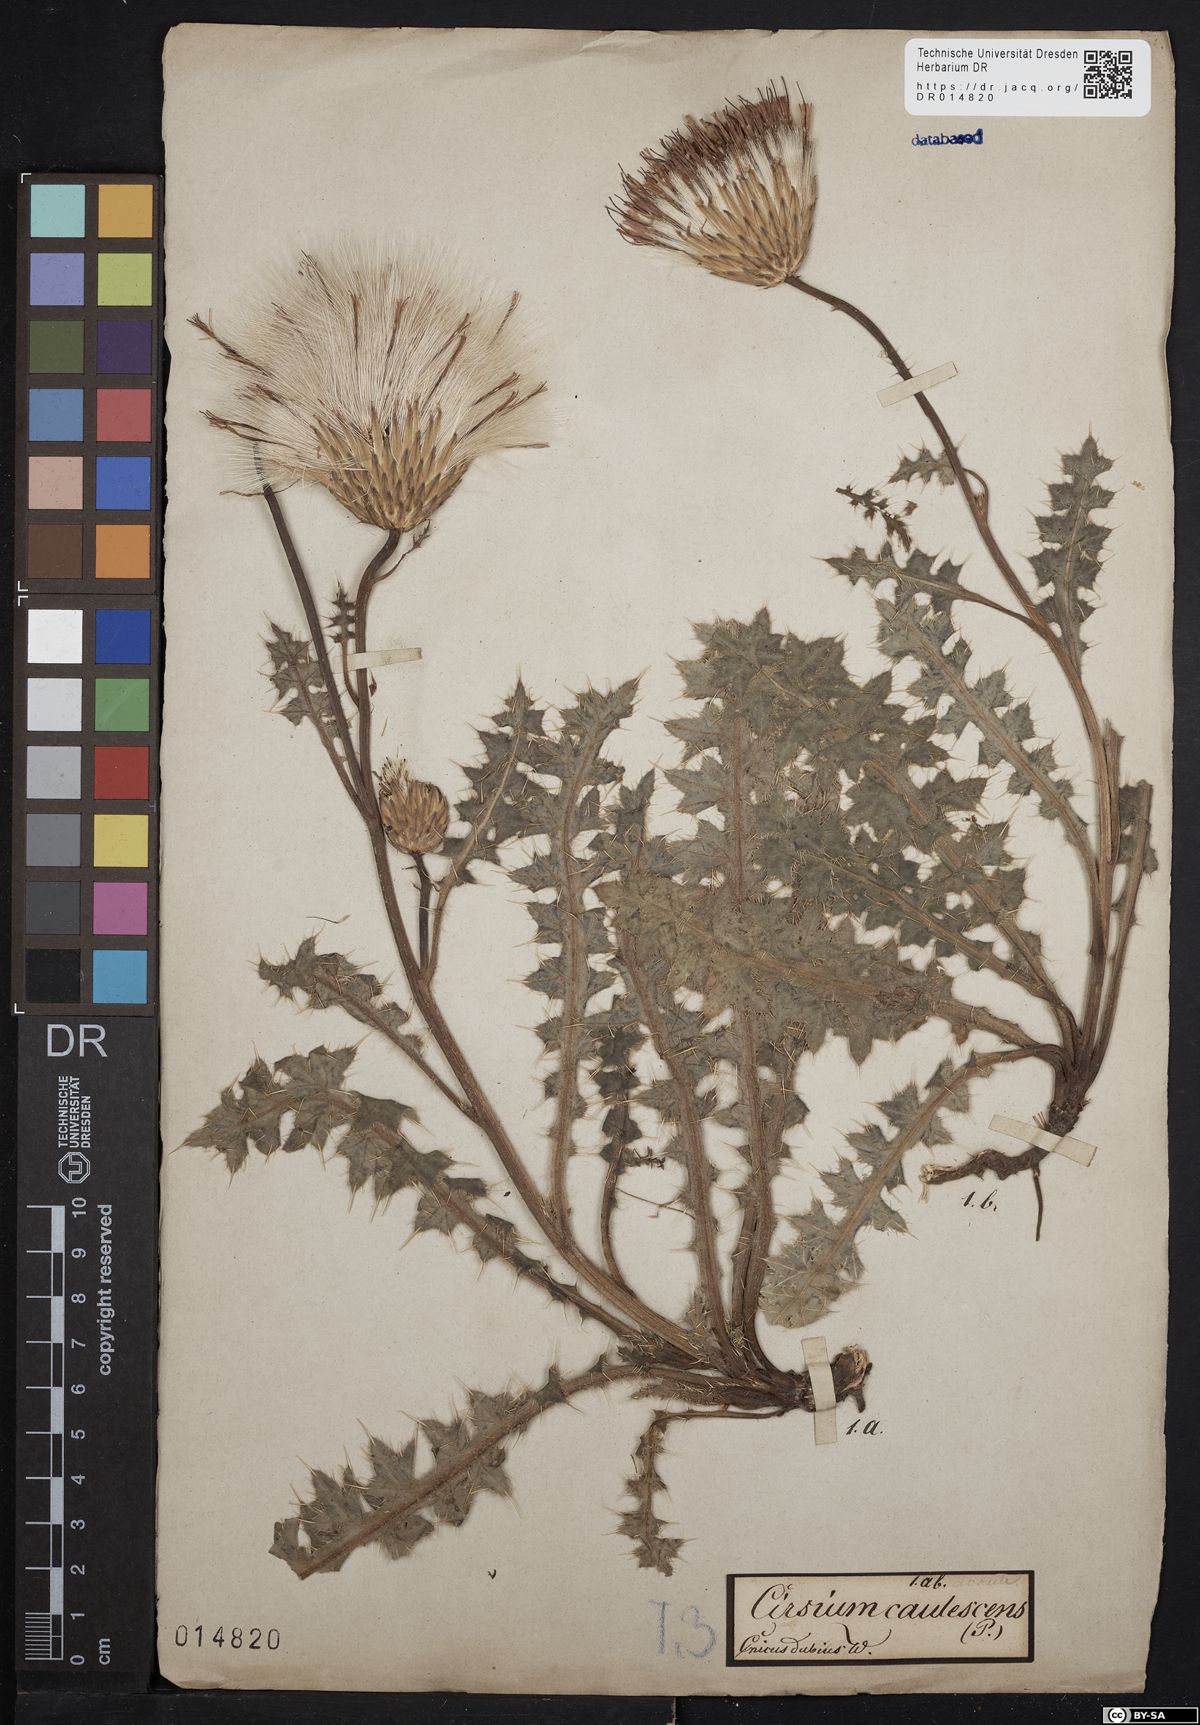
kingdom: Plantae
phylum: Tracheophyta
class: Magnoliopsida
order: Asterales
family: Asteraceae
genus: Cirsium
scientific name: Cirsium acaulon
